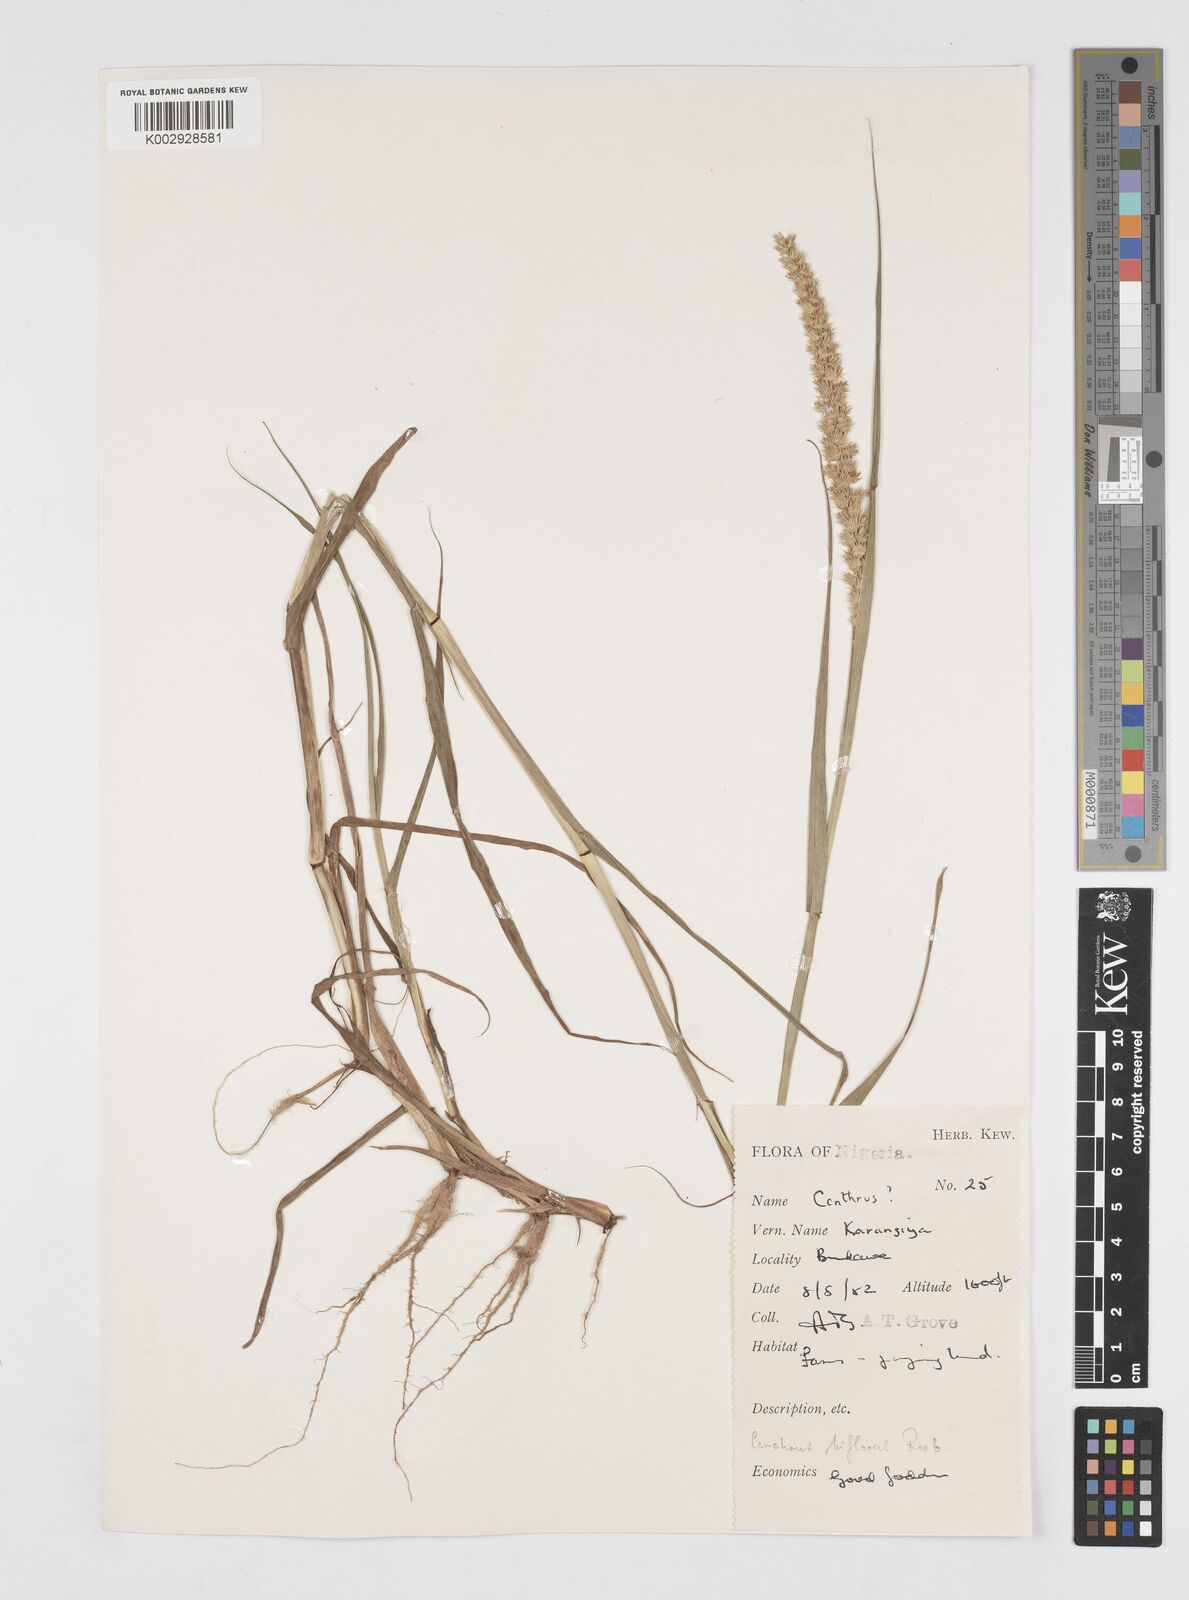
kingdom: Plantae
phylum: Tracheophyta
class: Liliopsida
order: Poales
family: Poaceae
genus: Cenchrus
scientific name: Cenchrus biflorus
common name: Indian sandbur
